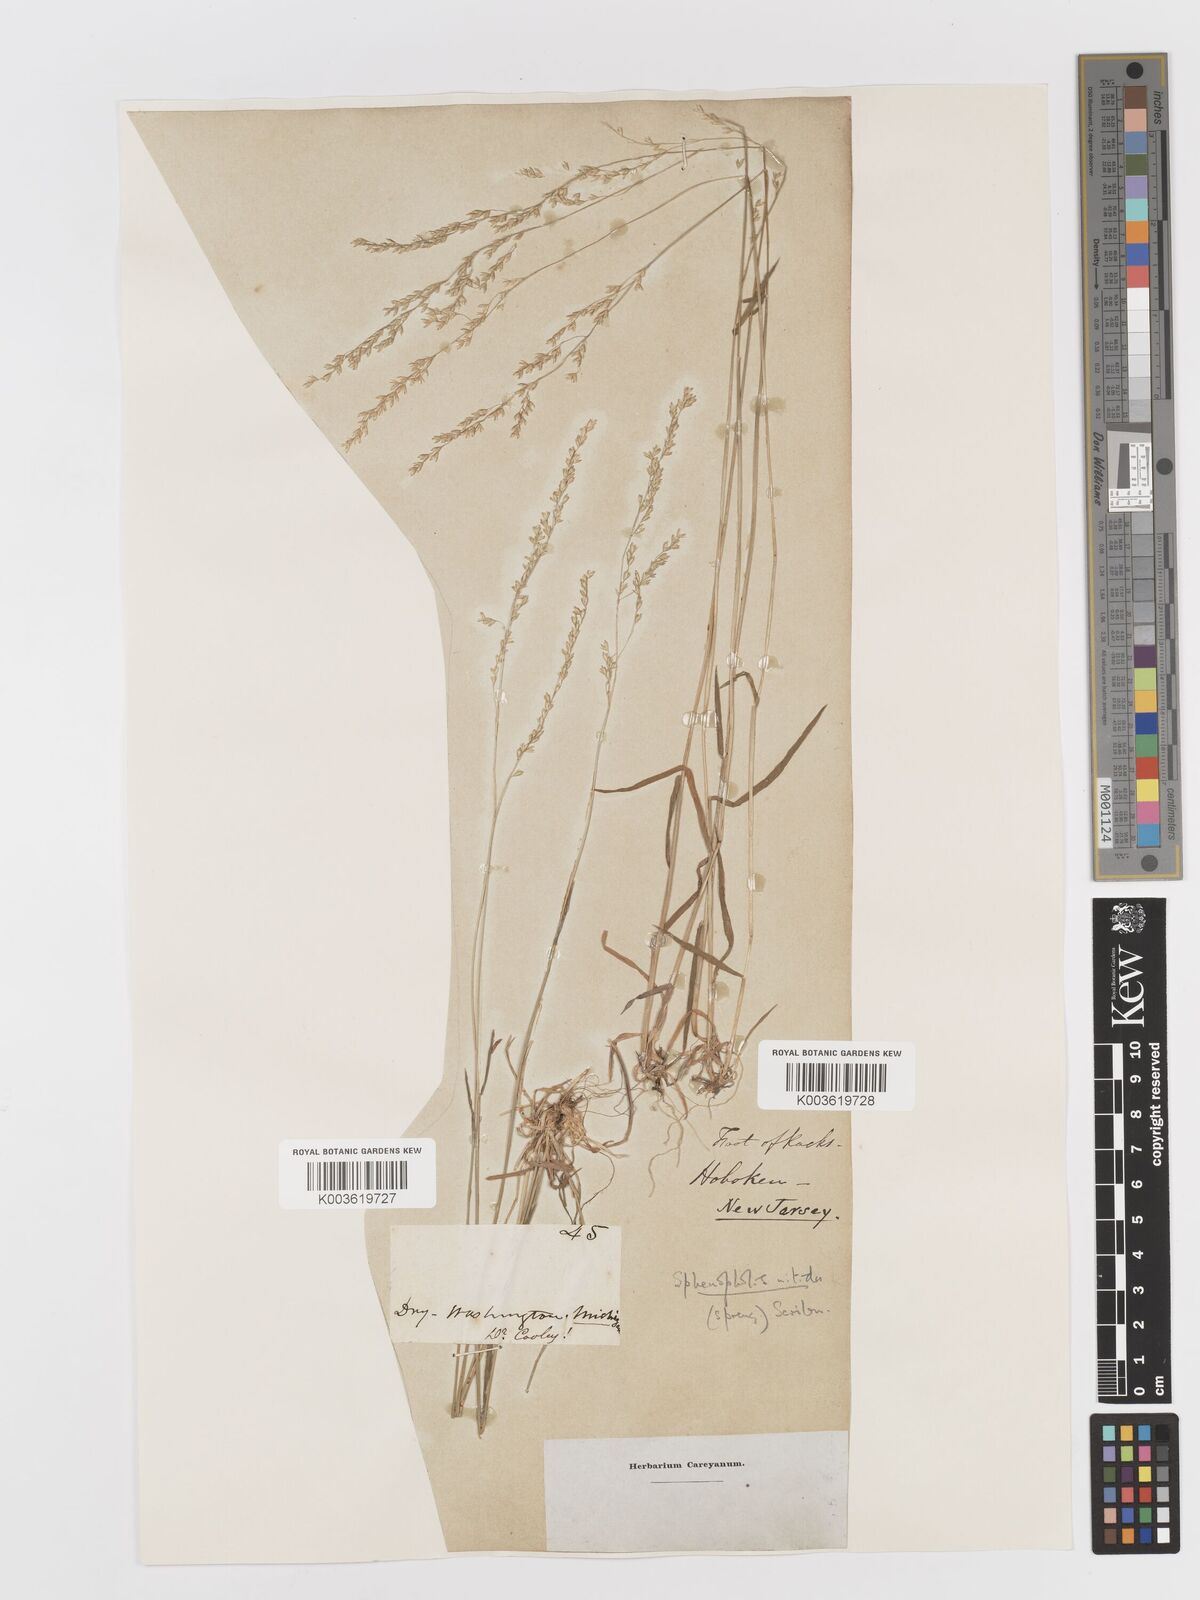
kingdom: Plantae
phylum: Tracheophyta
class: Liliopsida
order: Poales
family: Poaceae
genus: Sphenopholis
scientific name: Sphenopholis nitida
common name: Shiny wedgegrass
